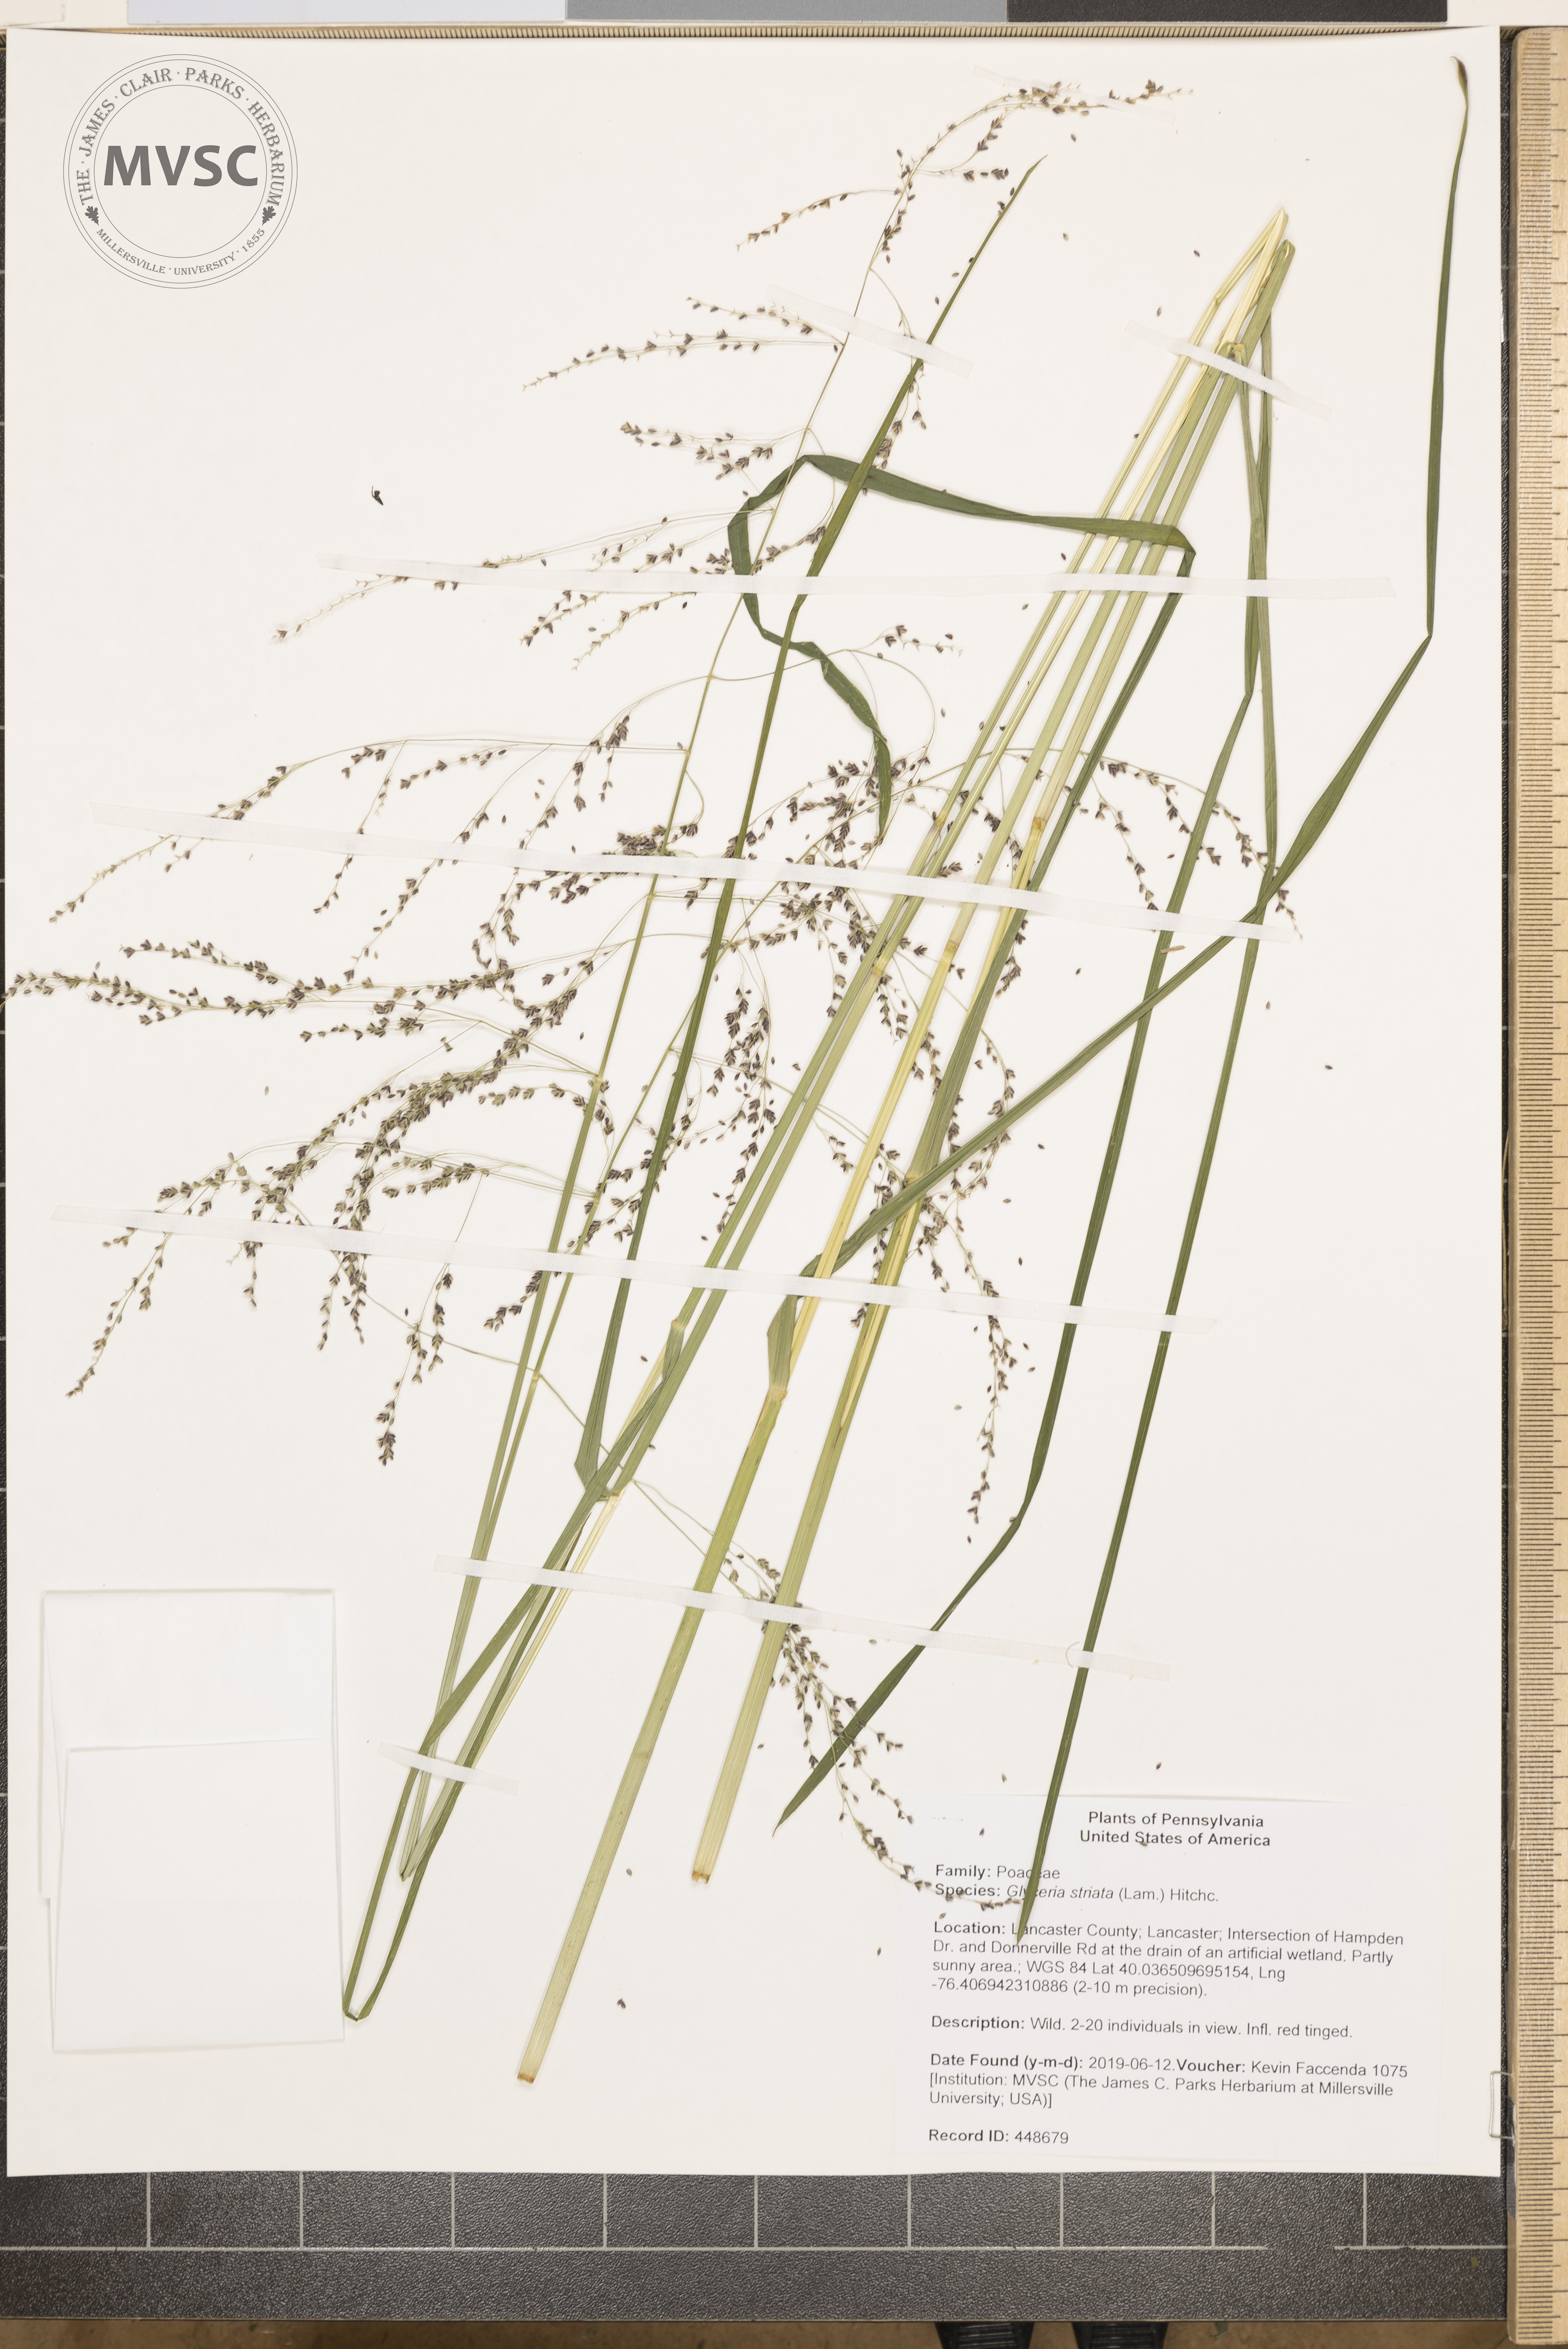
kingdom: Plantae
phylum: Tracheophyta
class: Liliopsida
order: Poales
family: Poaceae
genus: Glyceria
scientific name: Glyceria striata
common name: Fowl manna grass
